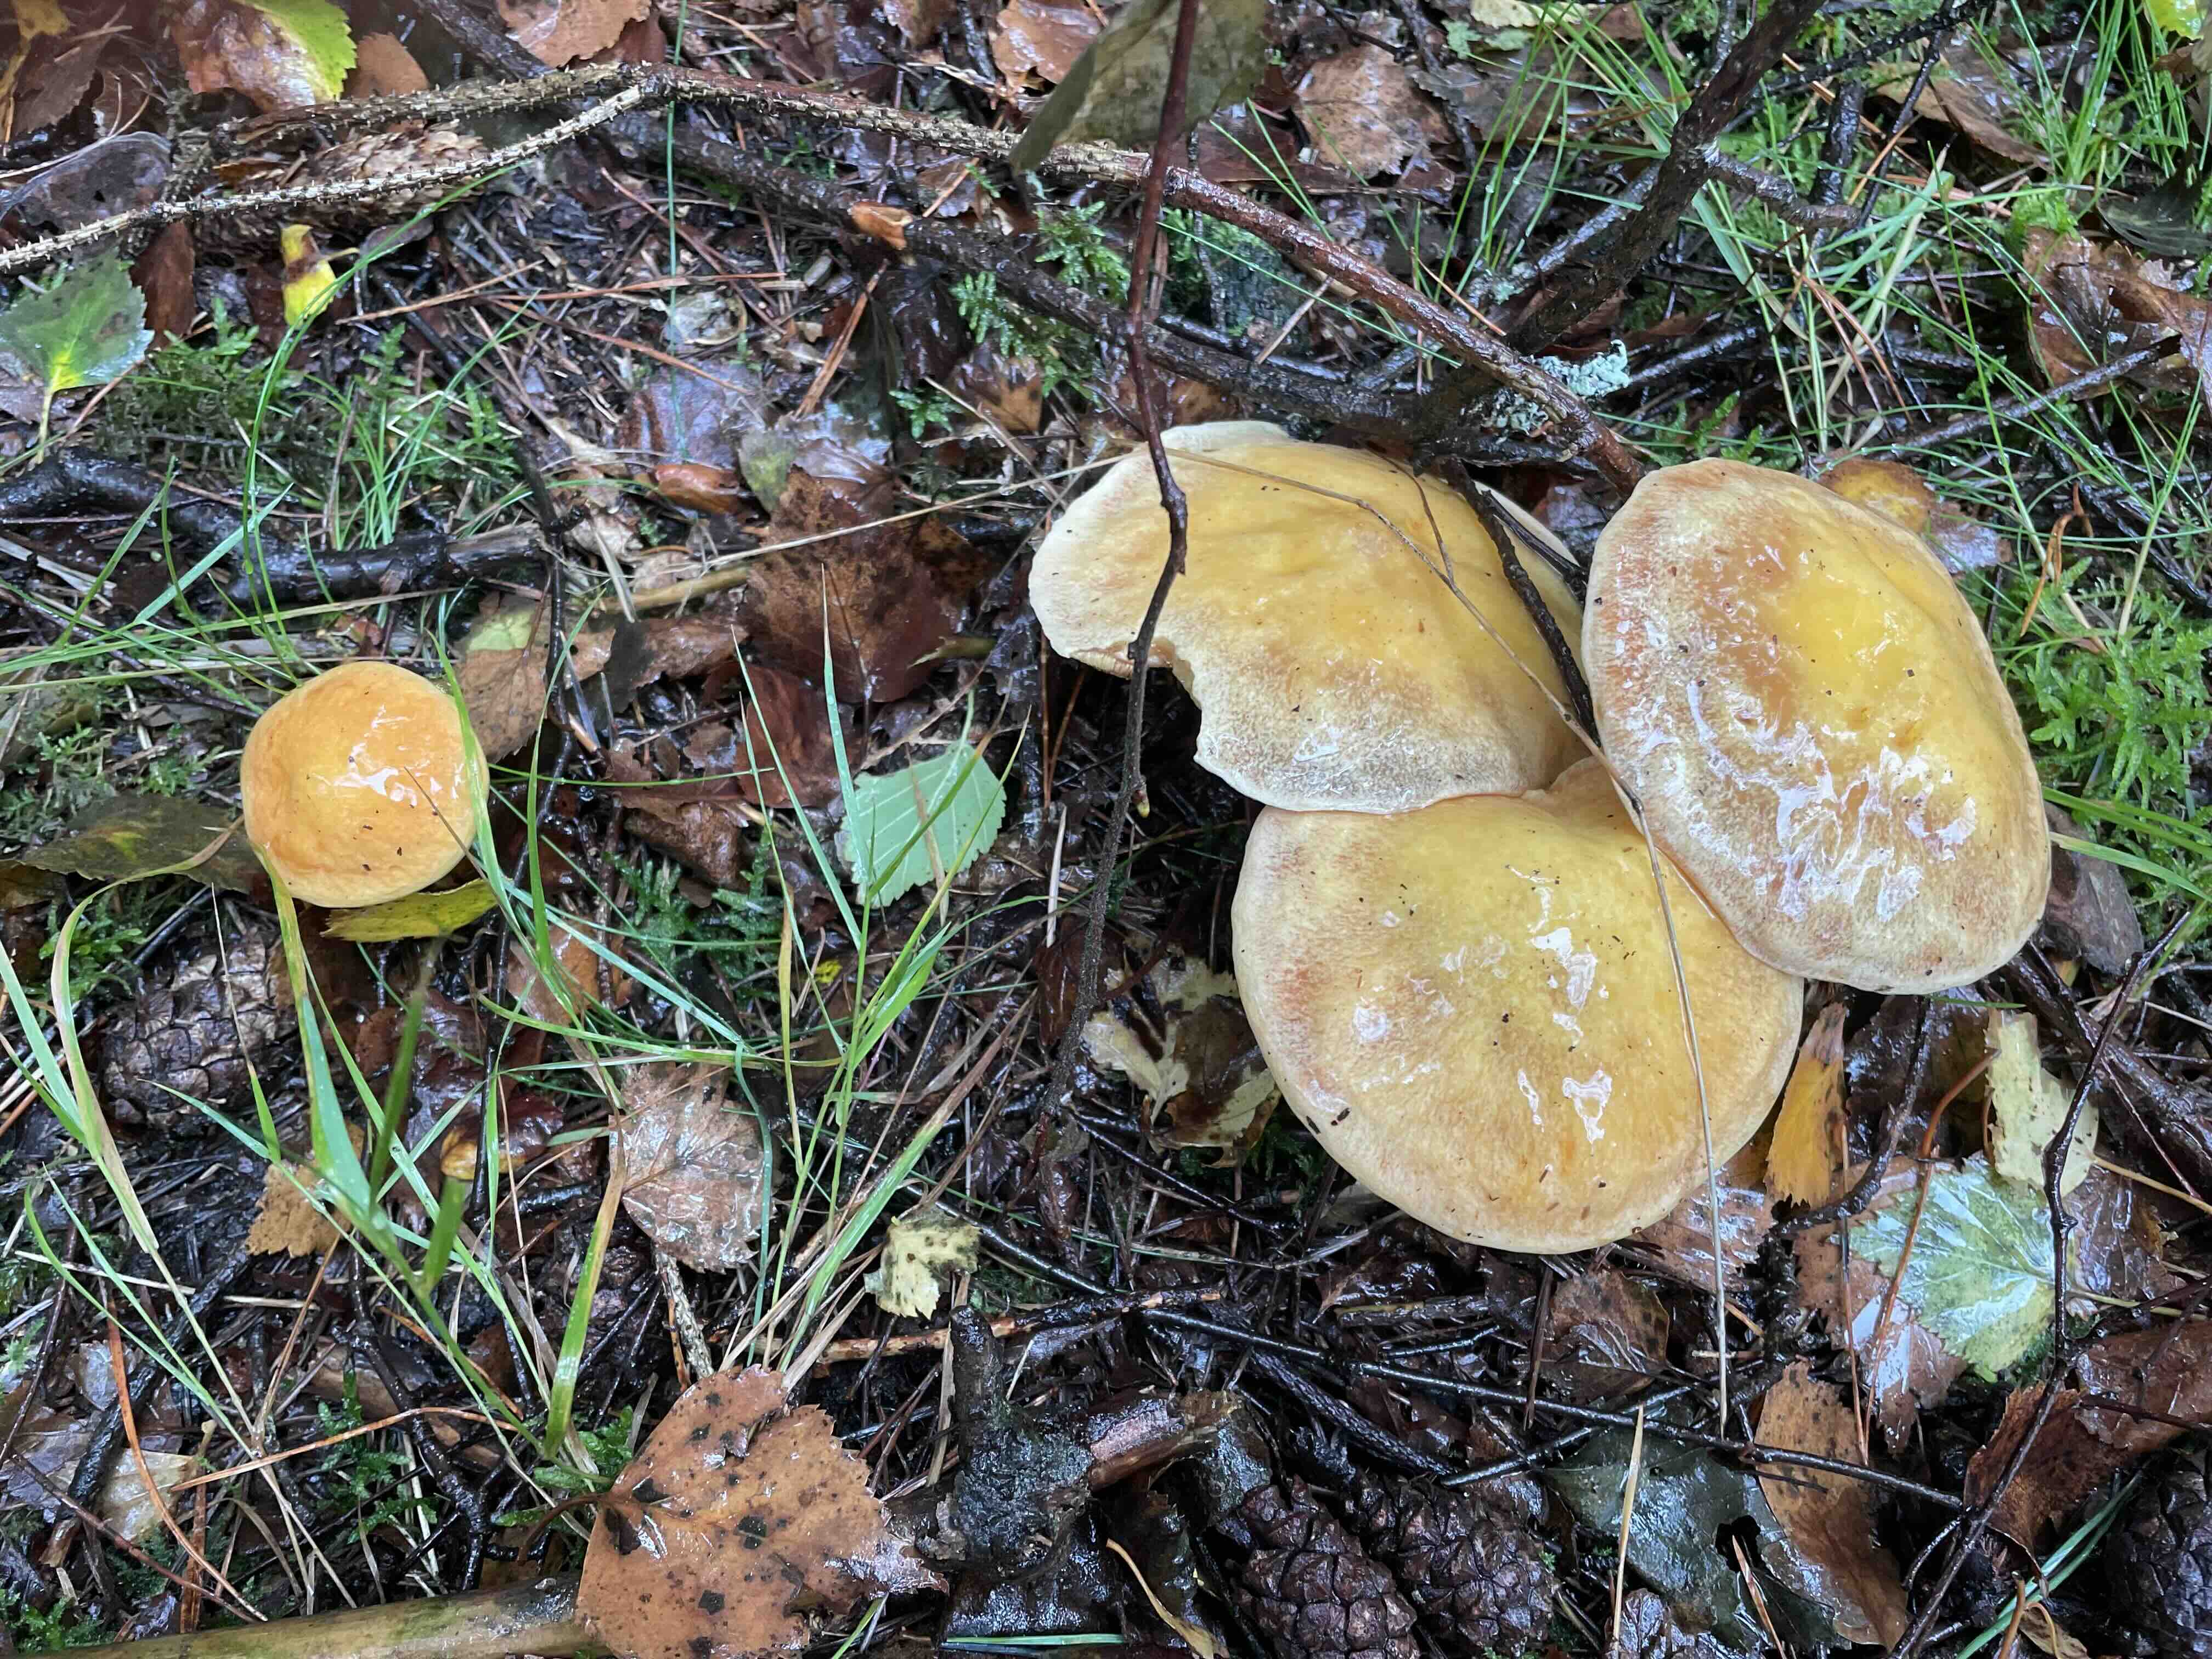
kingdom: Fungi
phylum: Basidiomycota
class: Agaricomycetes
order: Boletales
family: Suillaceae
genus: Suillus
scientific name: Suillus grevillei
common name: lærke-slimrørhat
